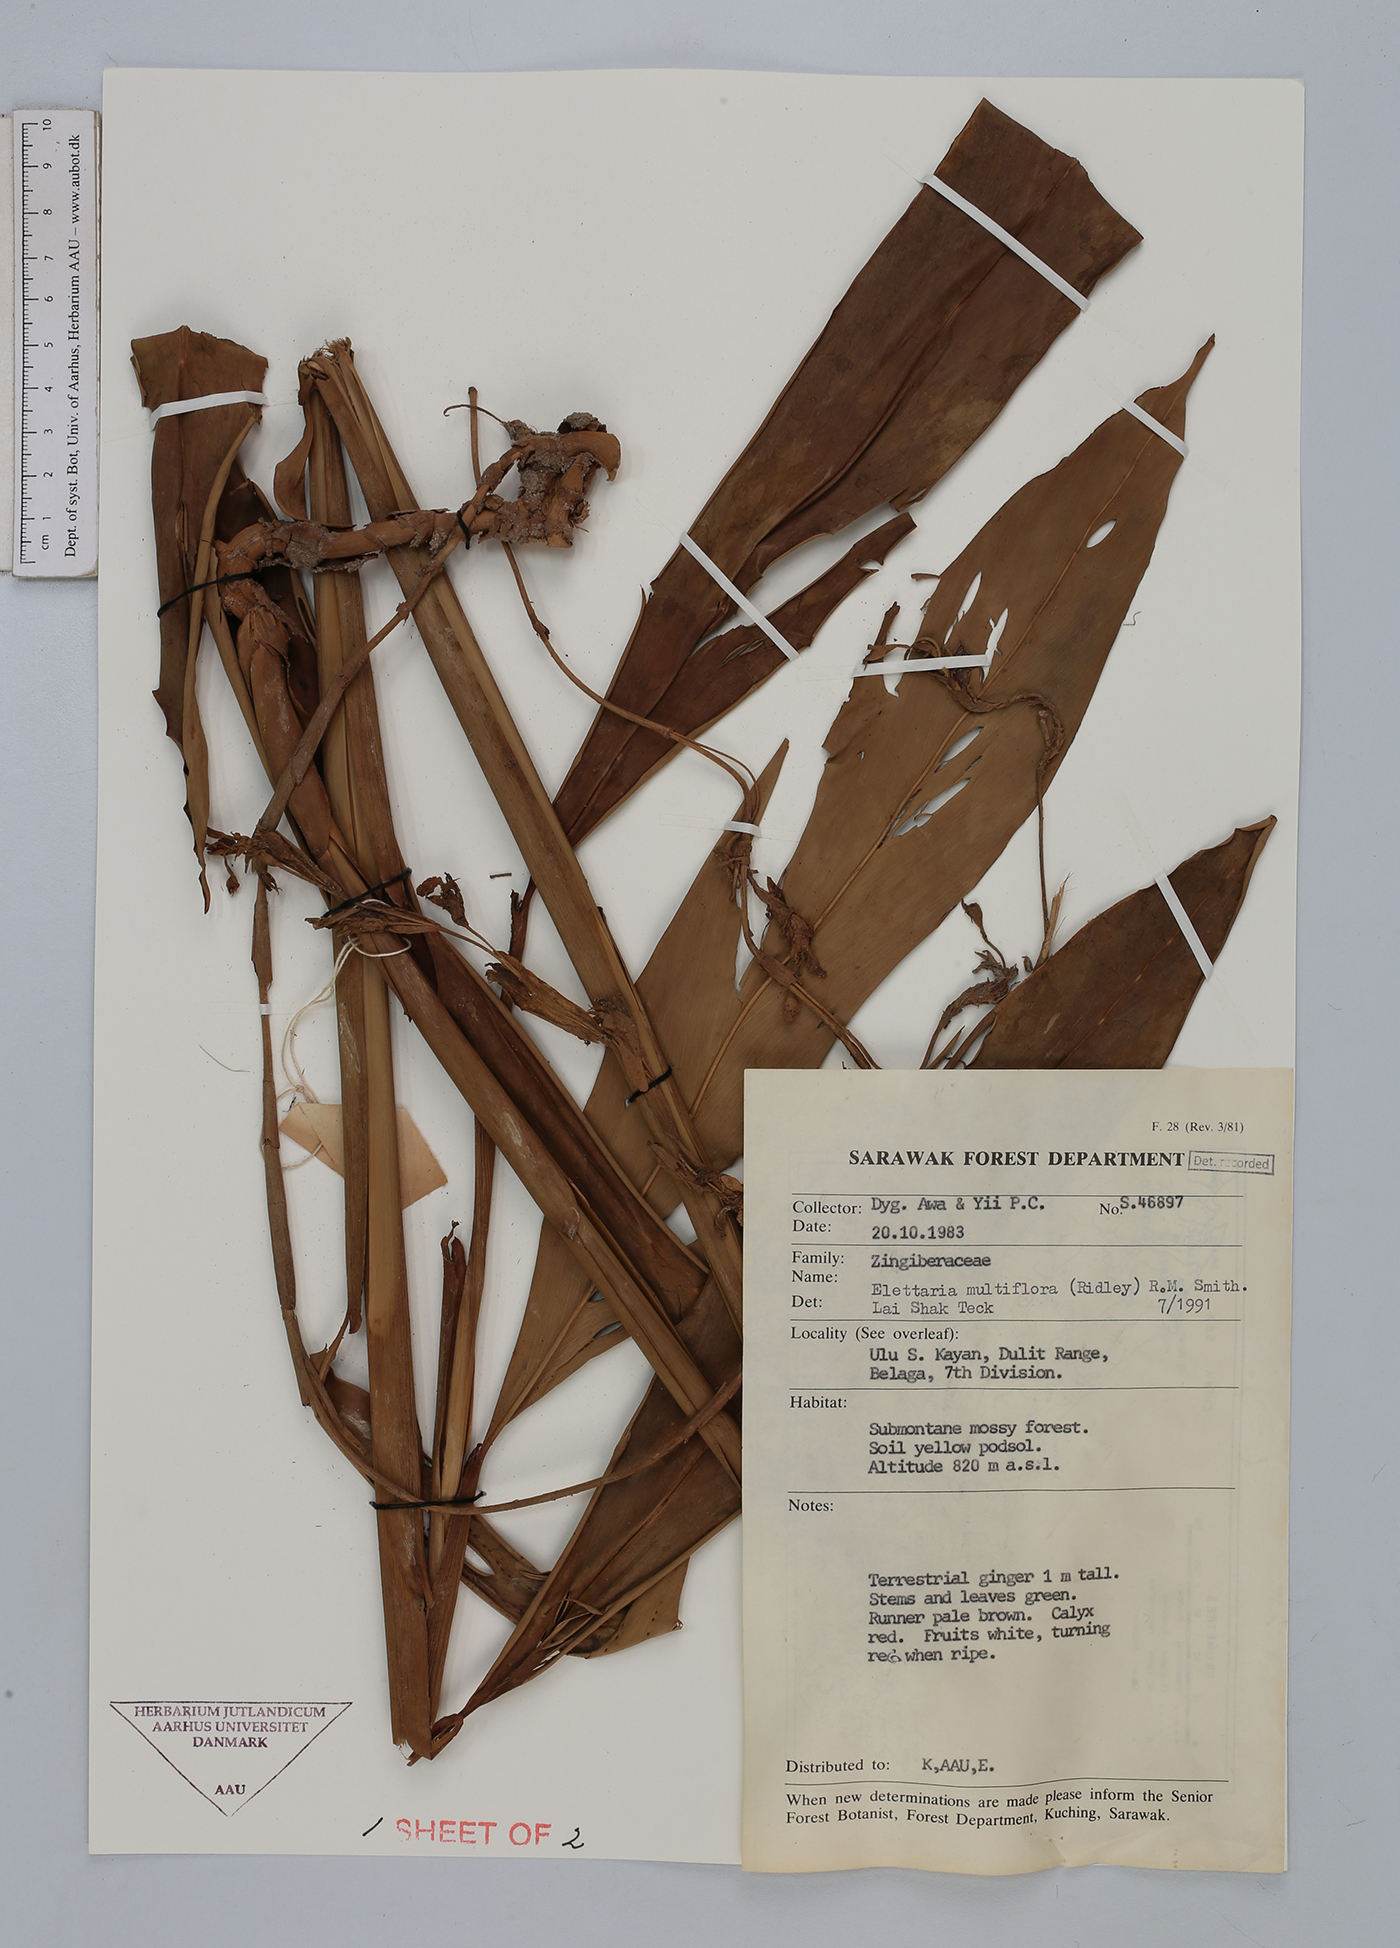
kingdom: Plantae
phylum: Tracheophyta
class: Liliopsida
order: Zingiberales
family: Zingiberaceae
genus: Sulettaria
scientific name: Sulettaria
